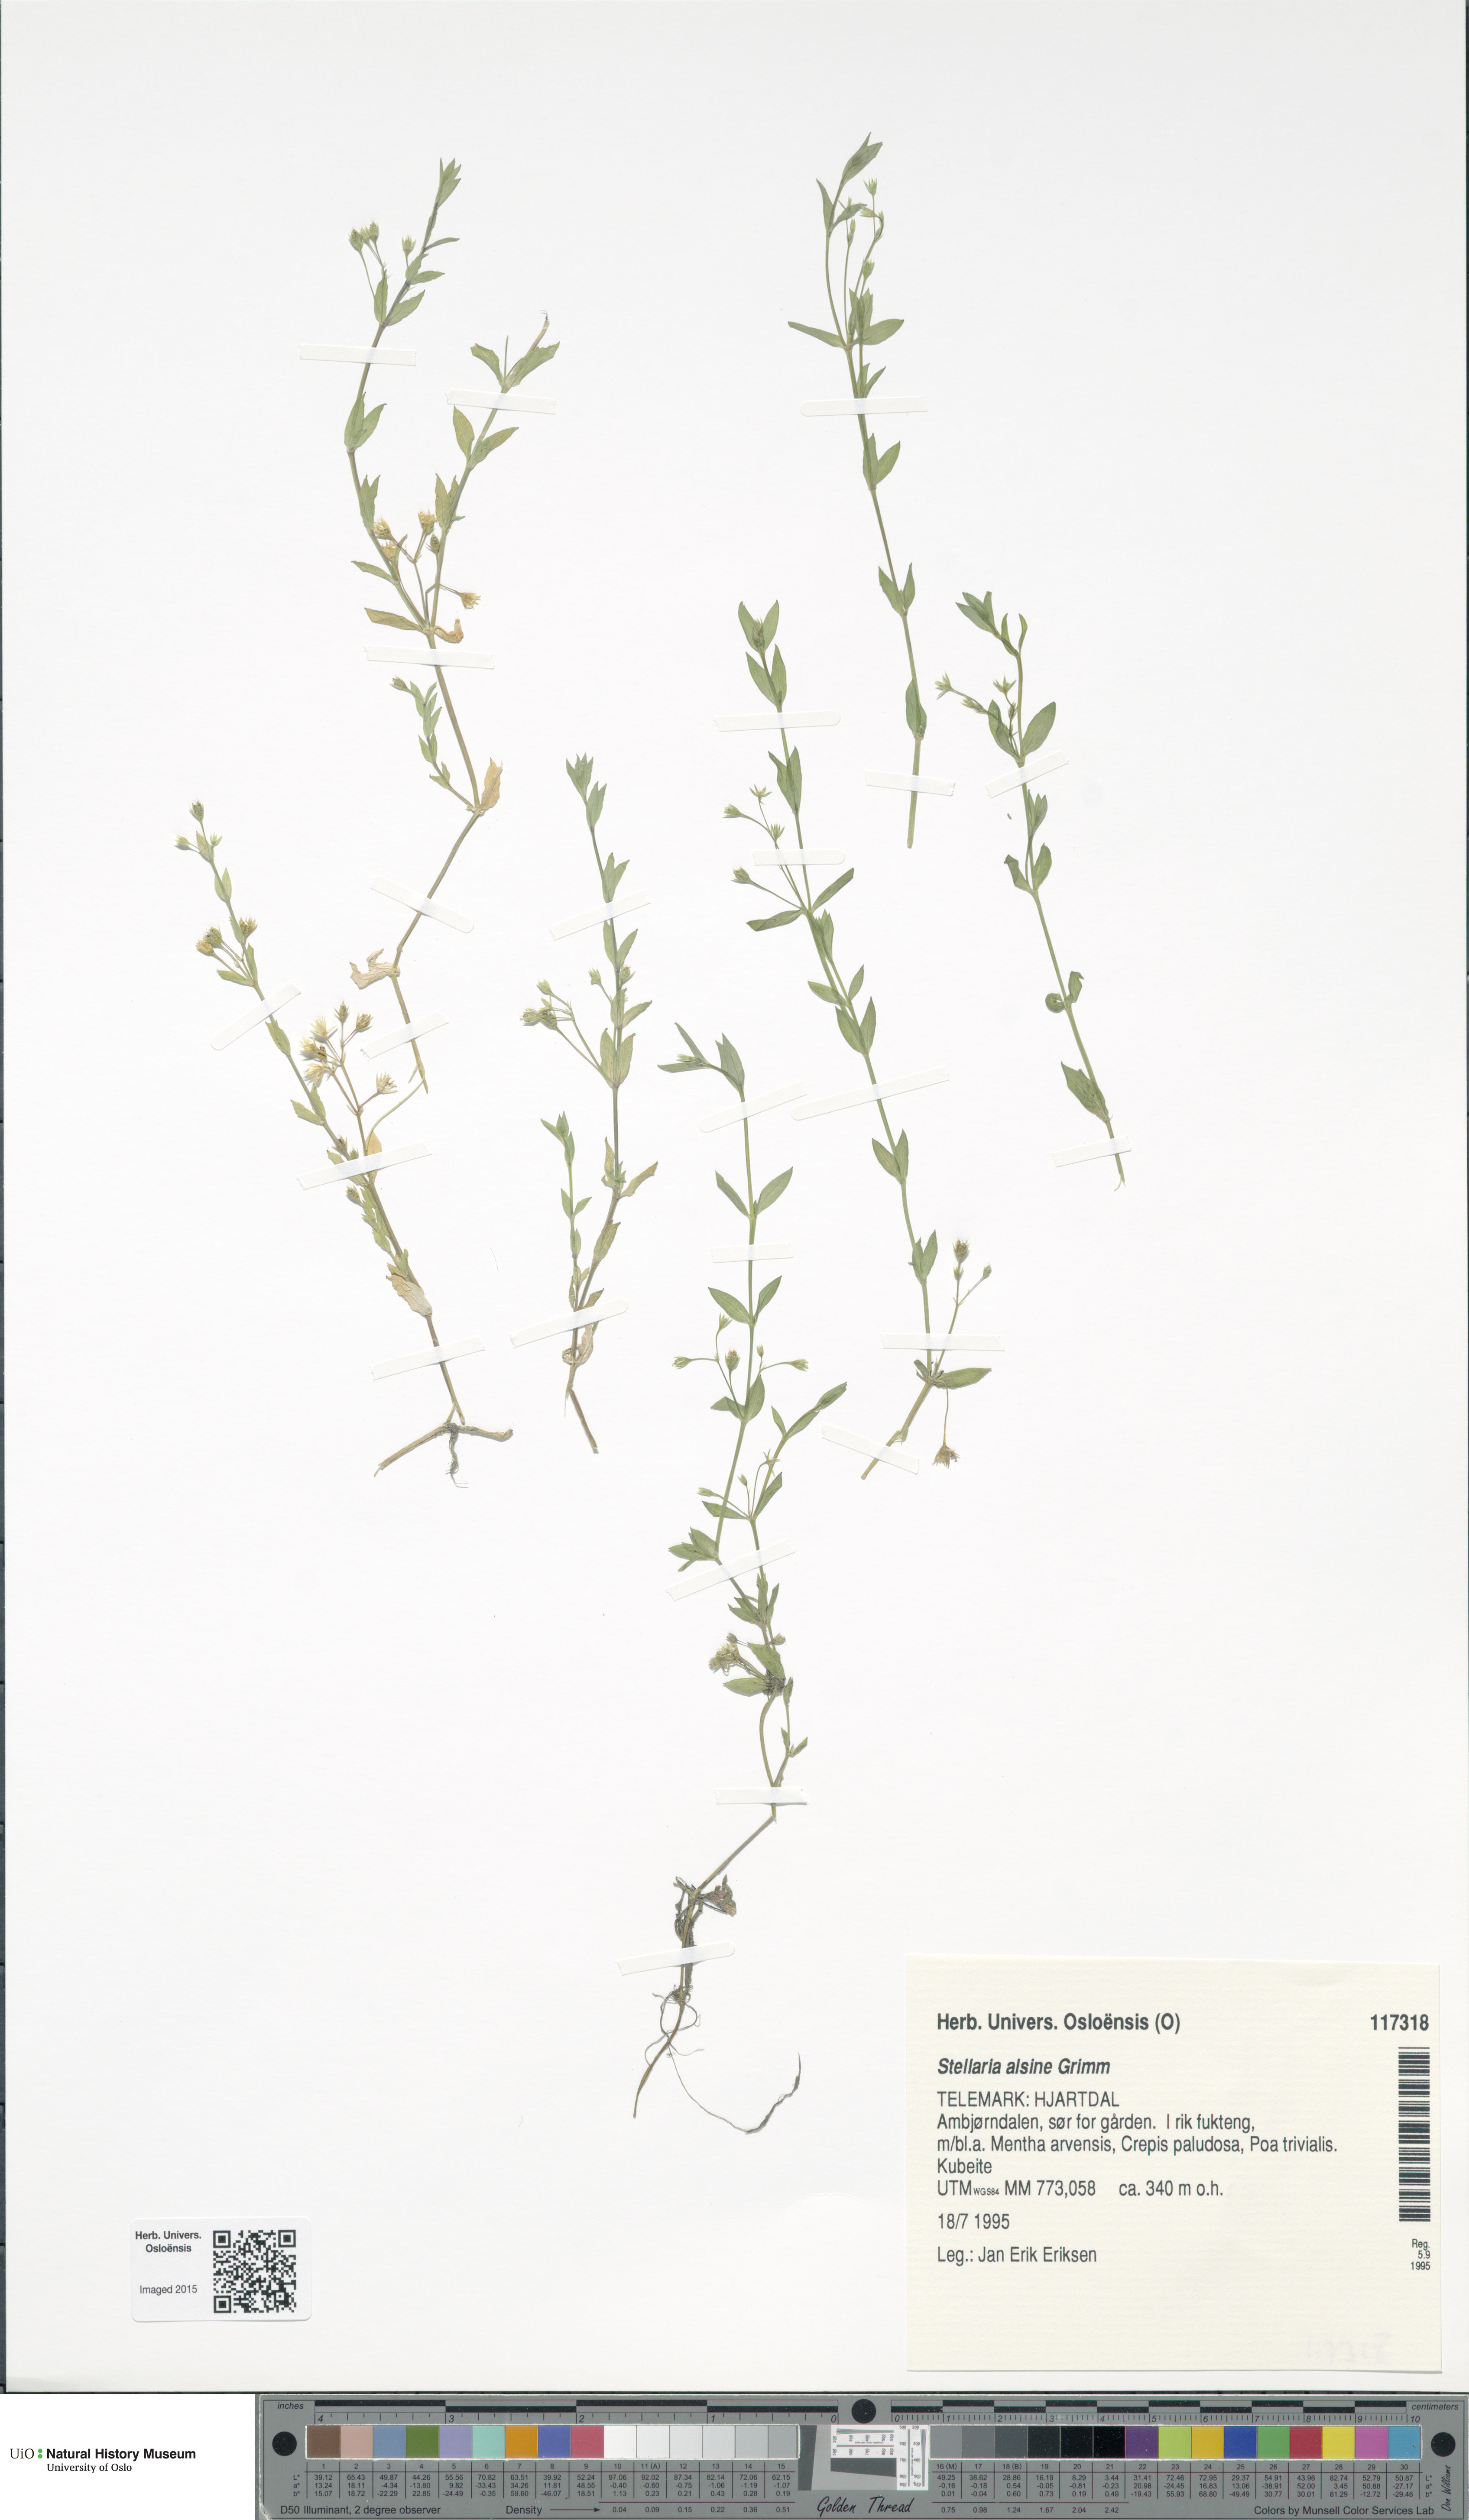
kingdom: Plantae
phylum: Tracheophyta
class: Magnoliopsida
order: Caryophyllales
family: Caryophyllaceae
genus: Stellaria
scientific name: Stellaria alsine
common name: Bog stitchwort
